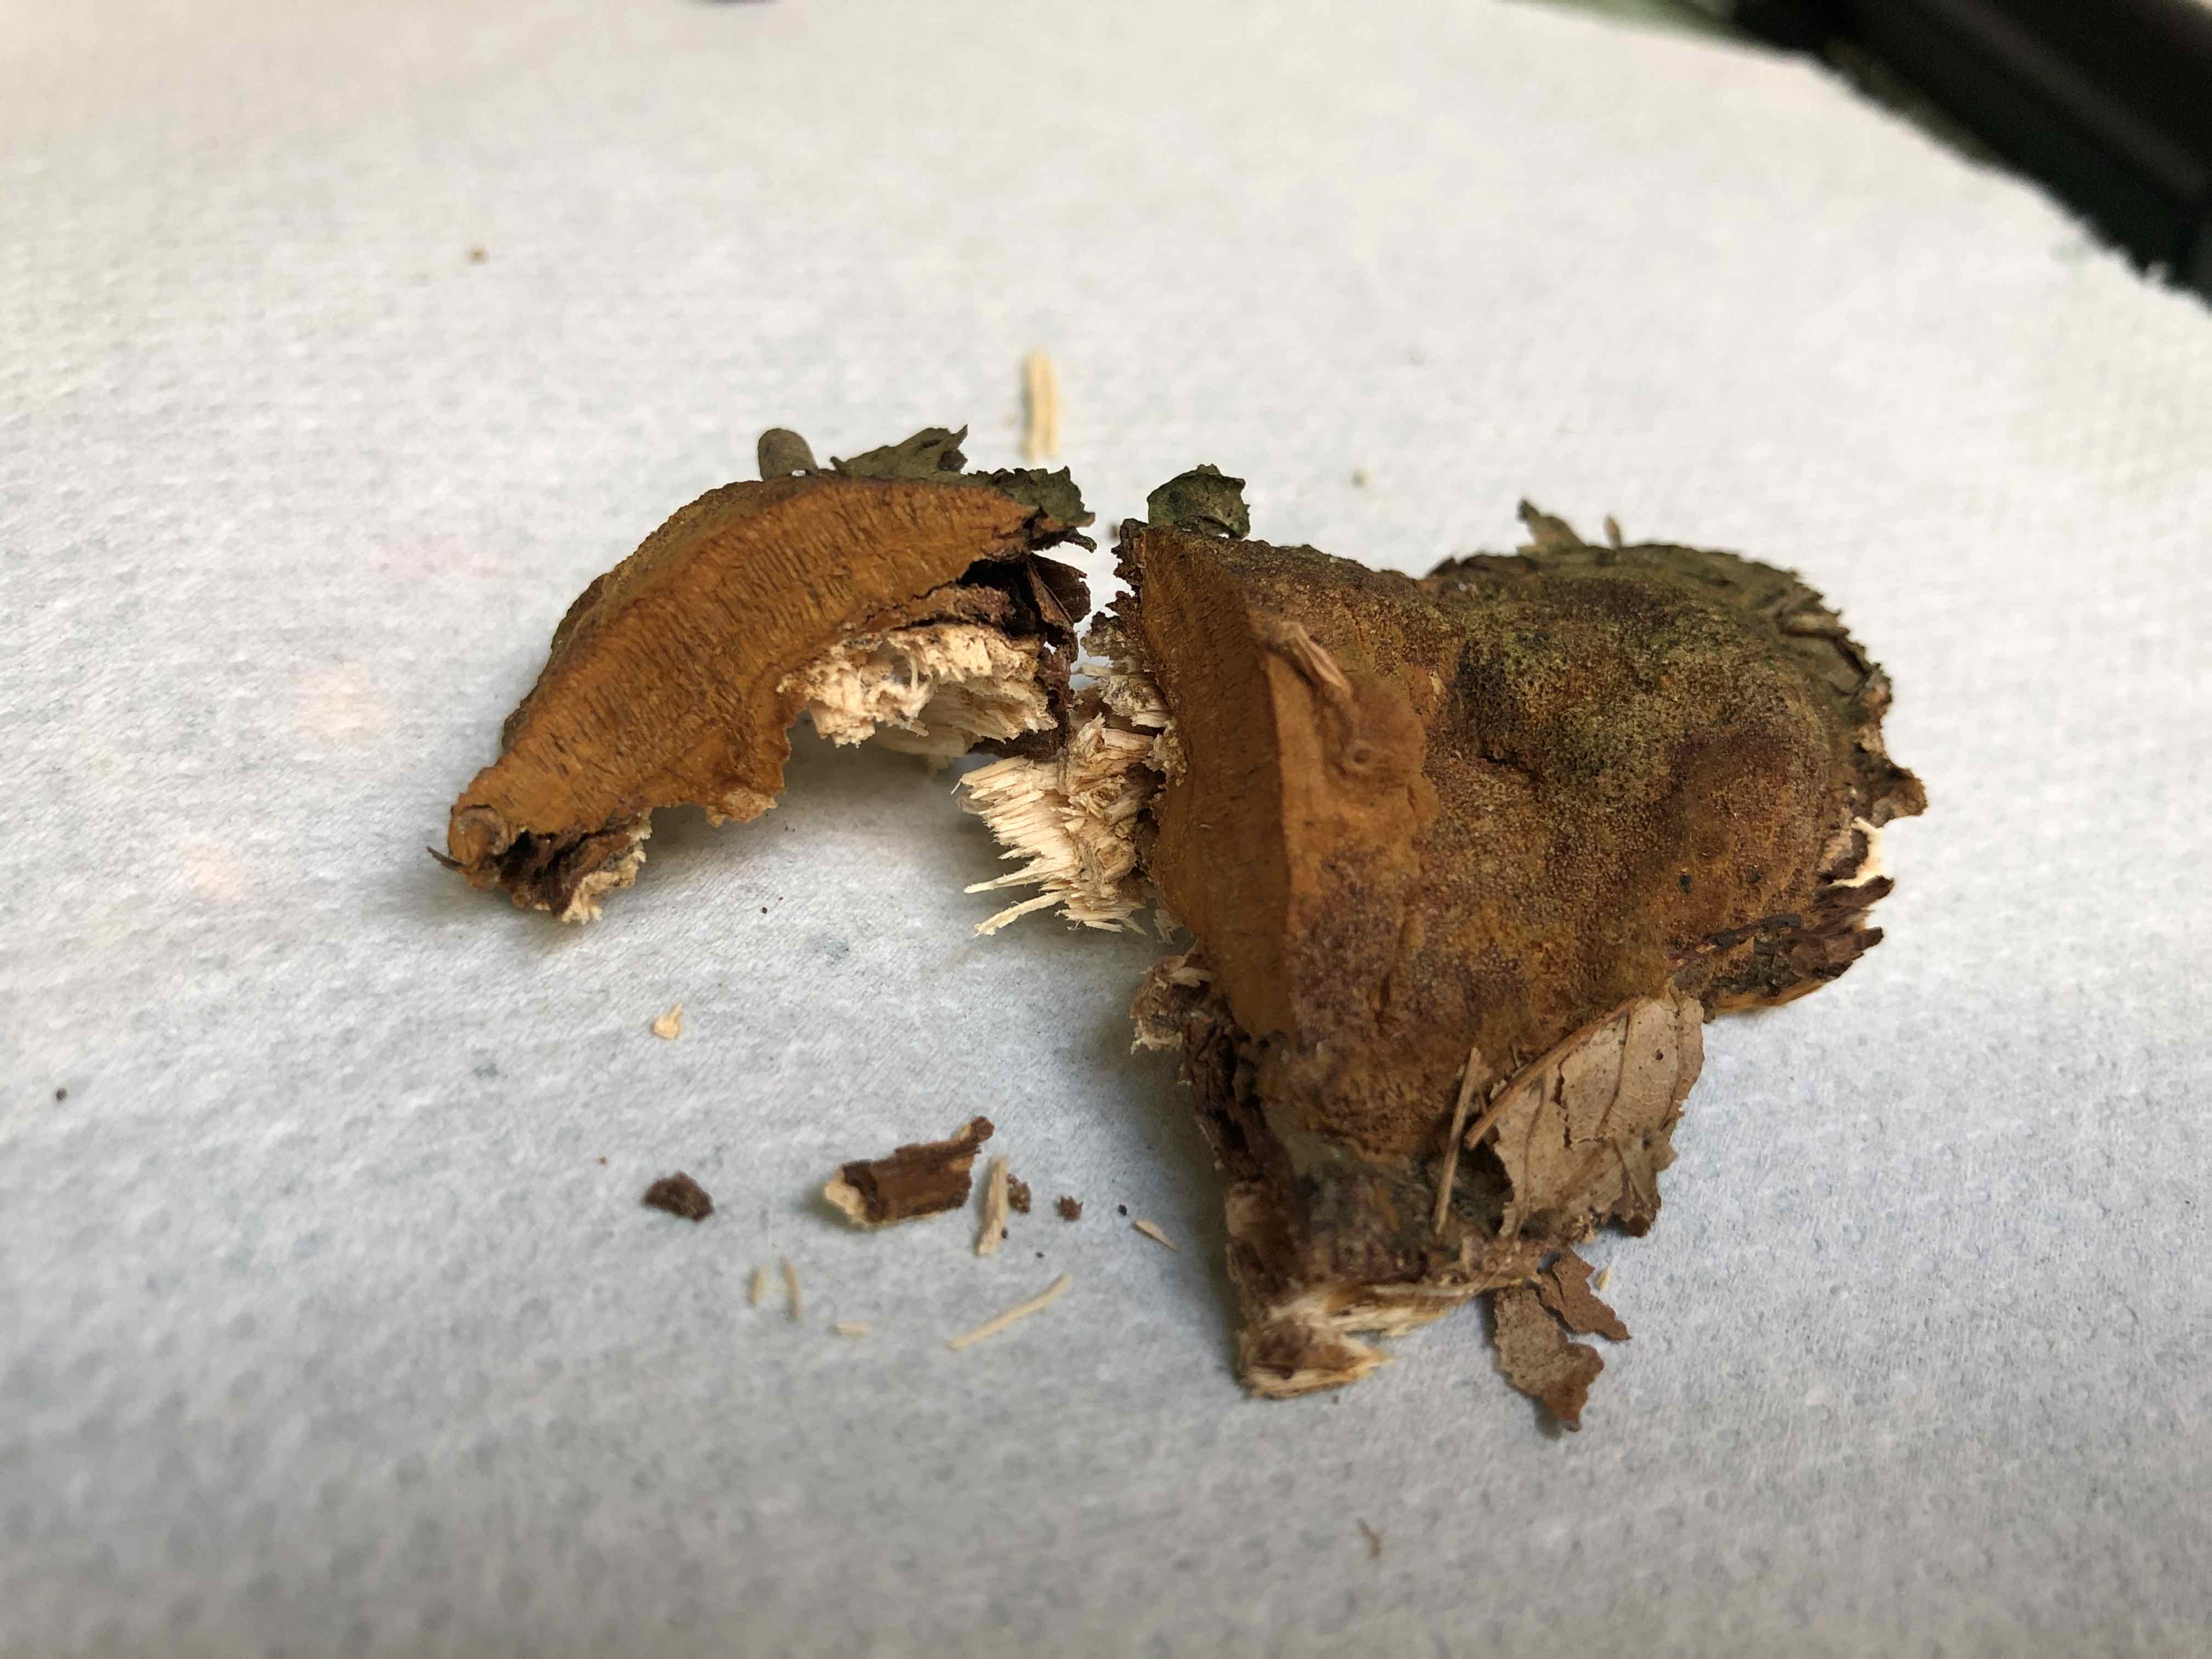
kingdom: Fungi
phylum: Basidiomycota
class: Agaricomycetes
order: Hymenochaetales
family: Hymenochaetaceae
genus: Fuscoporia
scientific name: Fuscoporia ferrea
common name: skorpe-ildporesvamp
